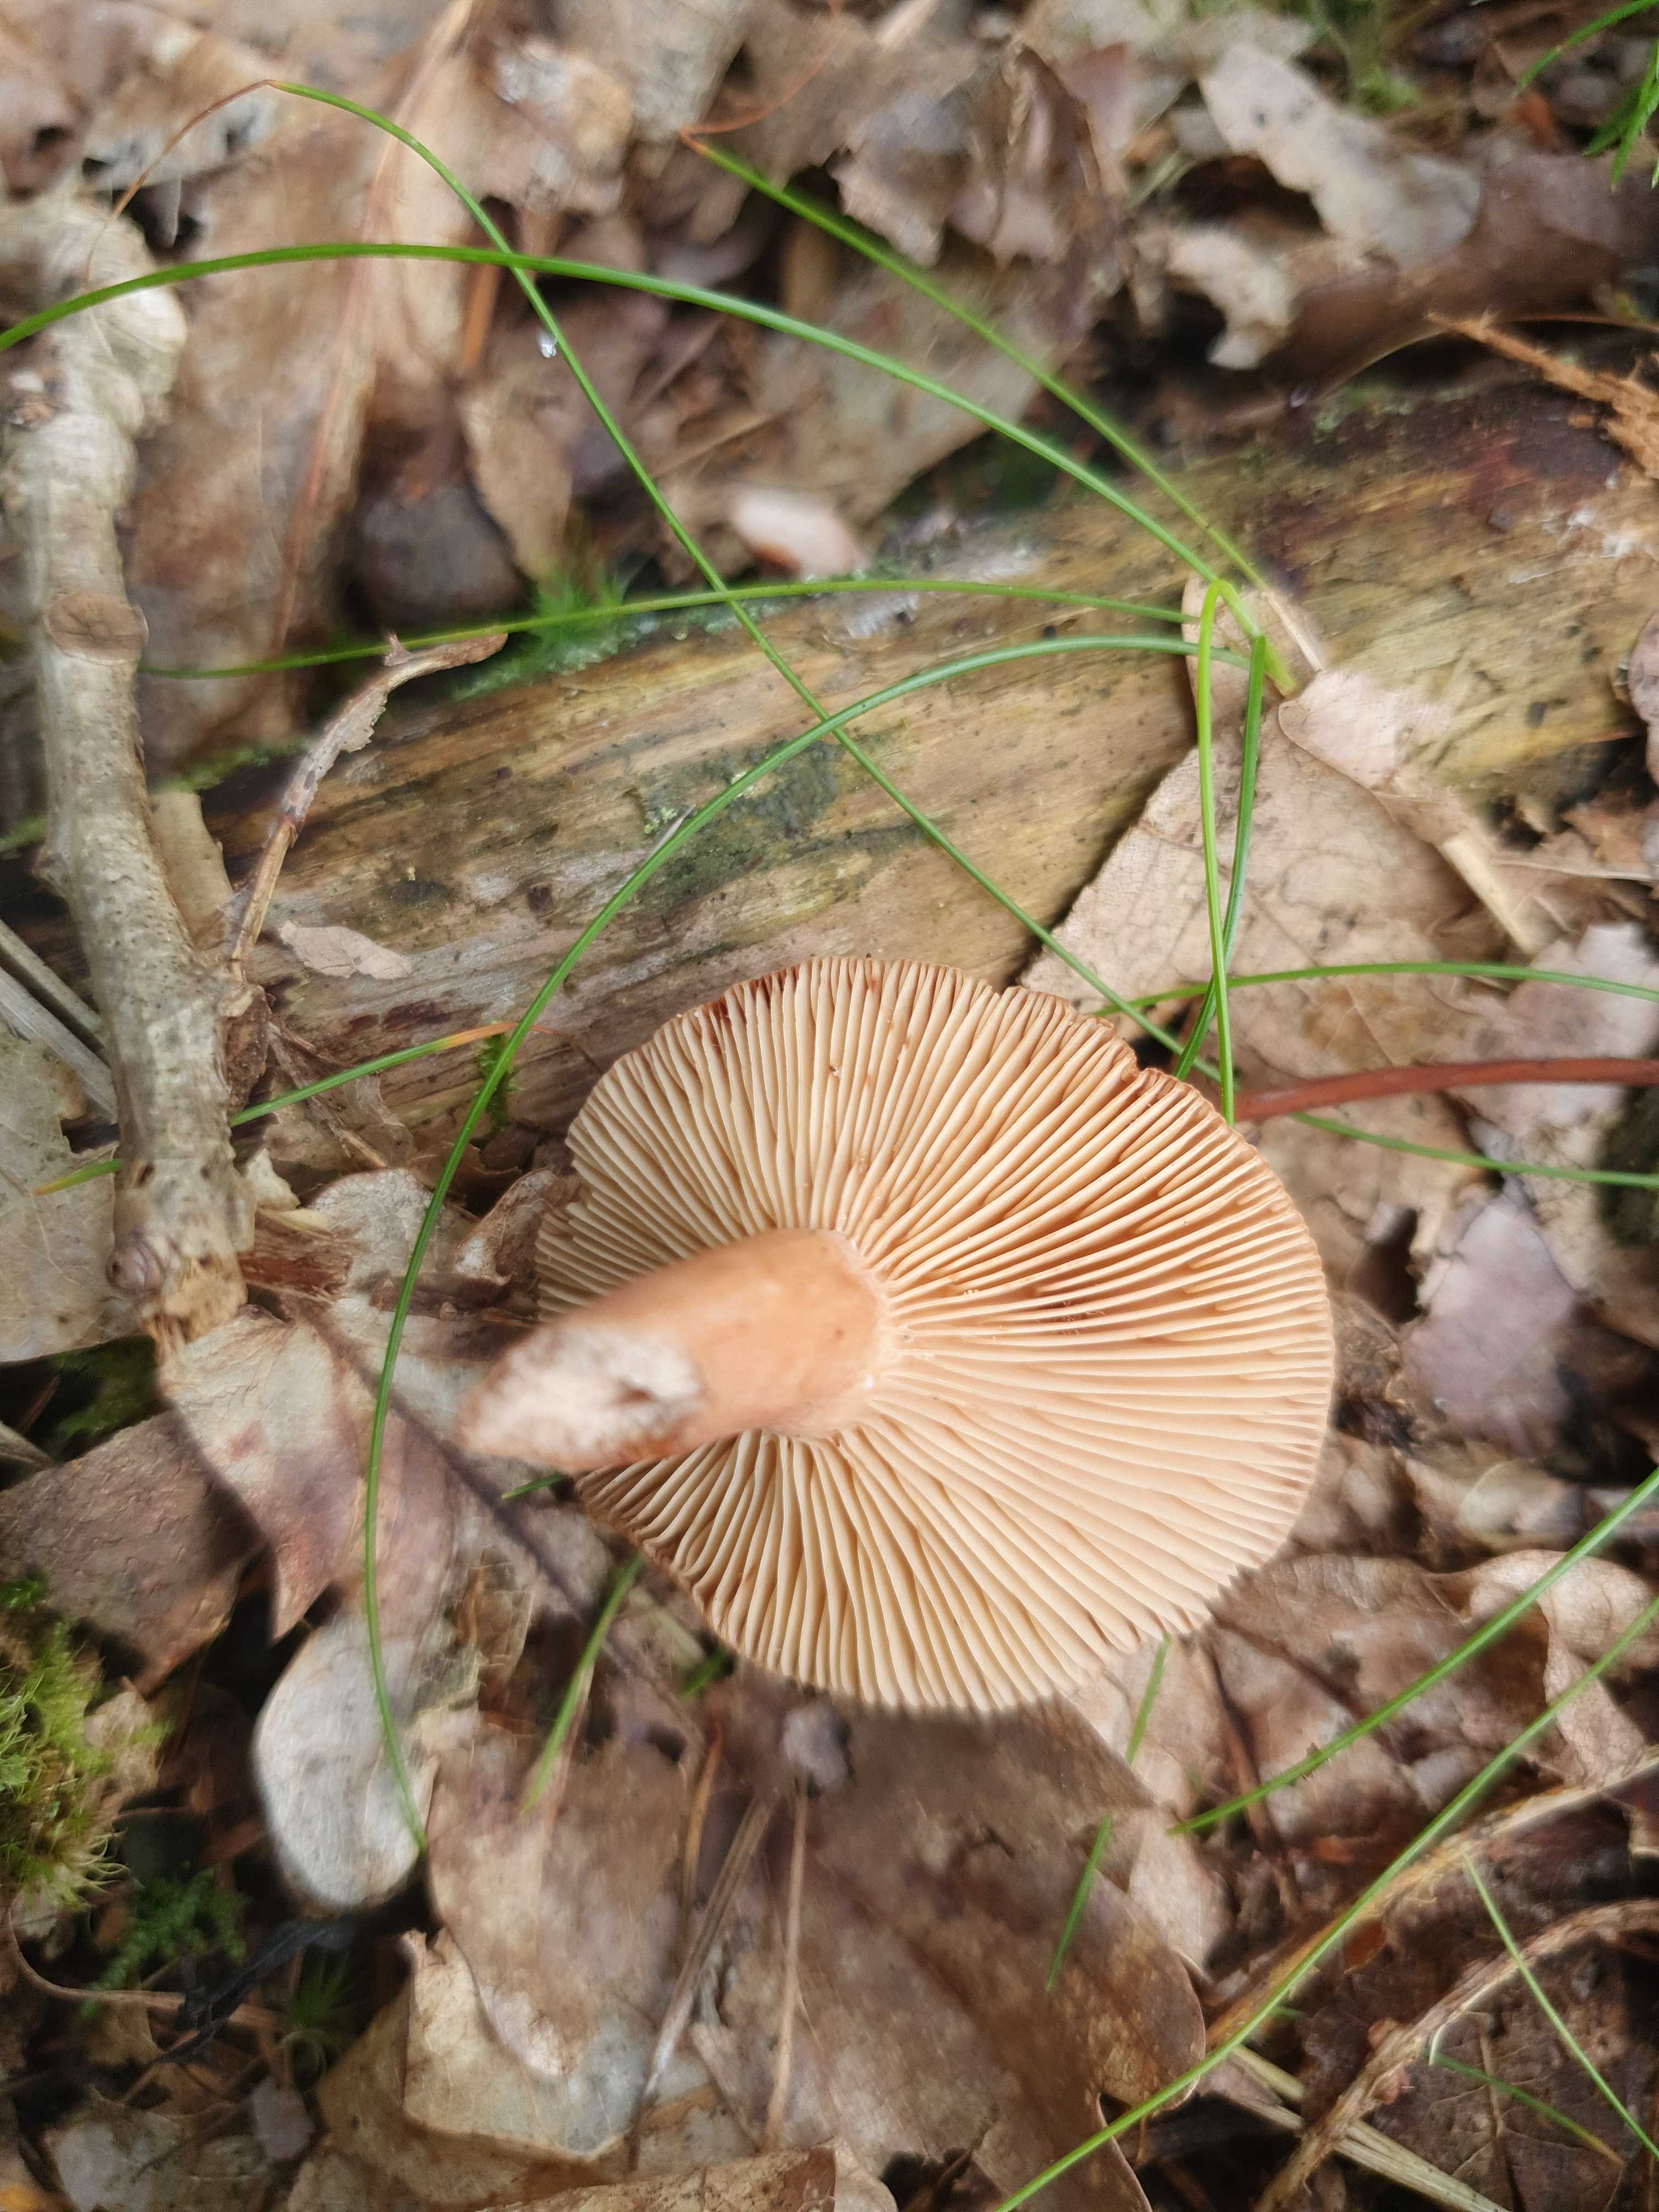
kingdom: Fungi
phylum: Basidiomycota
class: Agaricomycetes
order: Russulales
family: Russulaceae
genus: Lactarius
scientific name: Lactarius quietus
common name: ege-mælkehat
